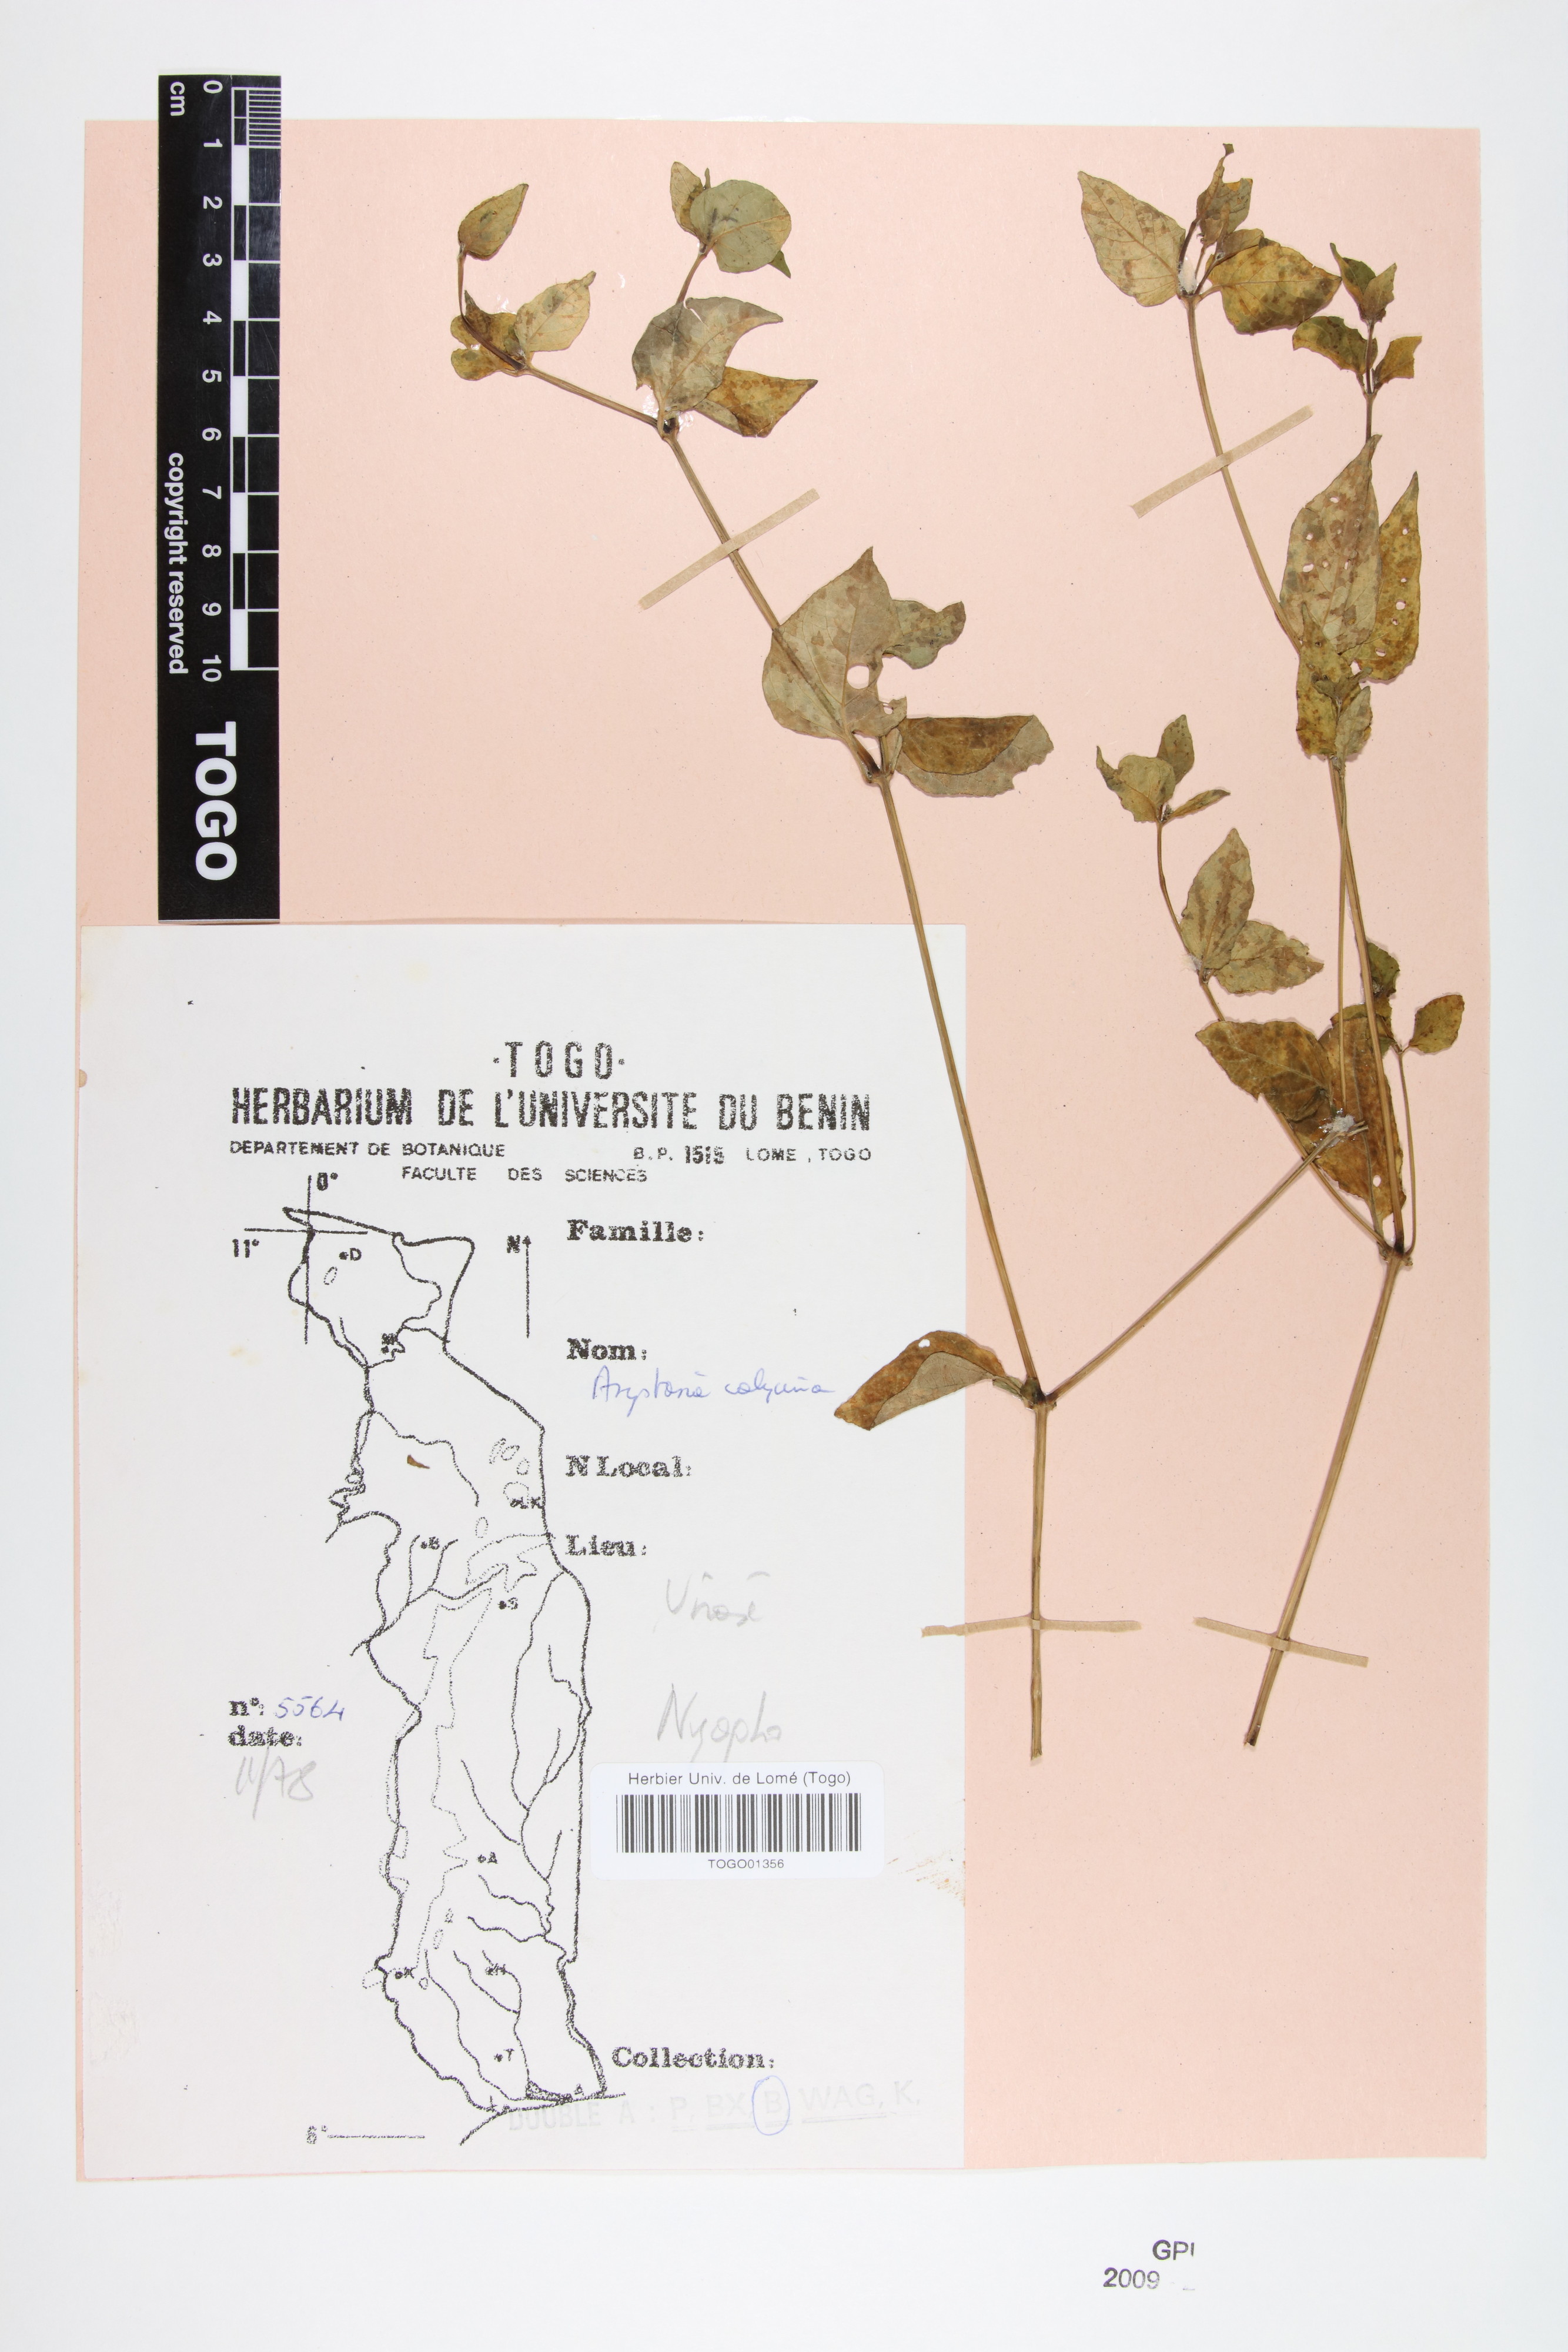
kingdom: Plantae
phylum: Tracheophyta
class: Magnoliopsida
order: Lamiales
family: Acanthaceae
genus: Asystasia
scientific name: Asystasia buettneri
